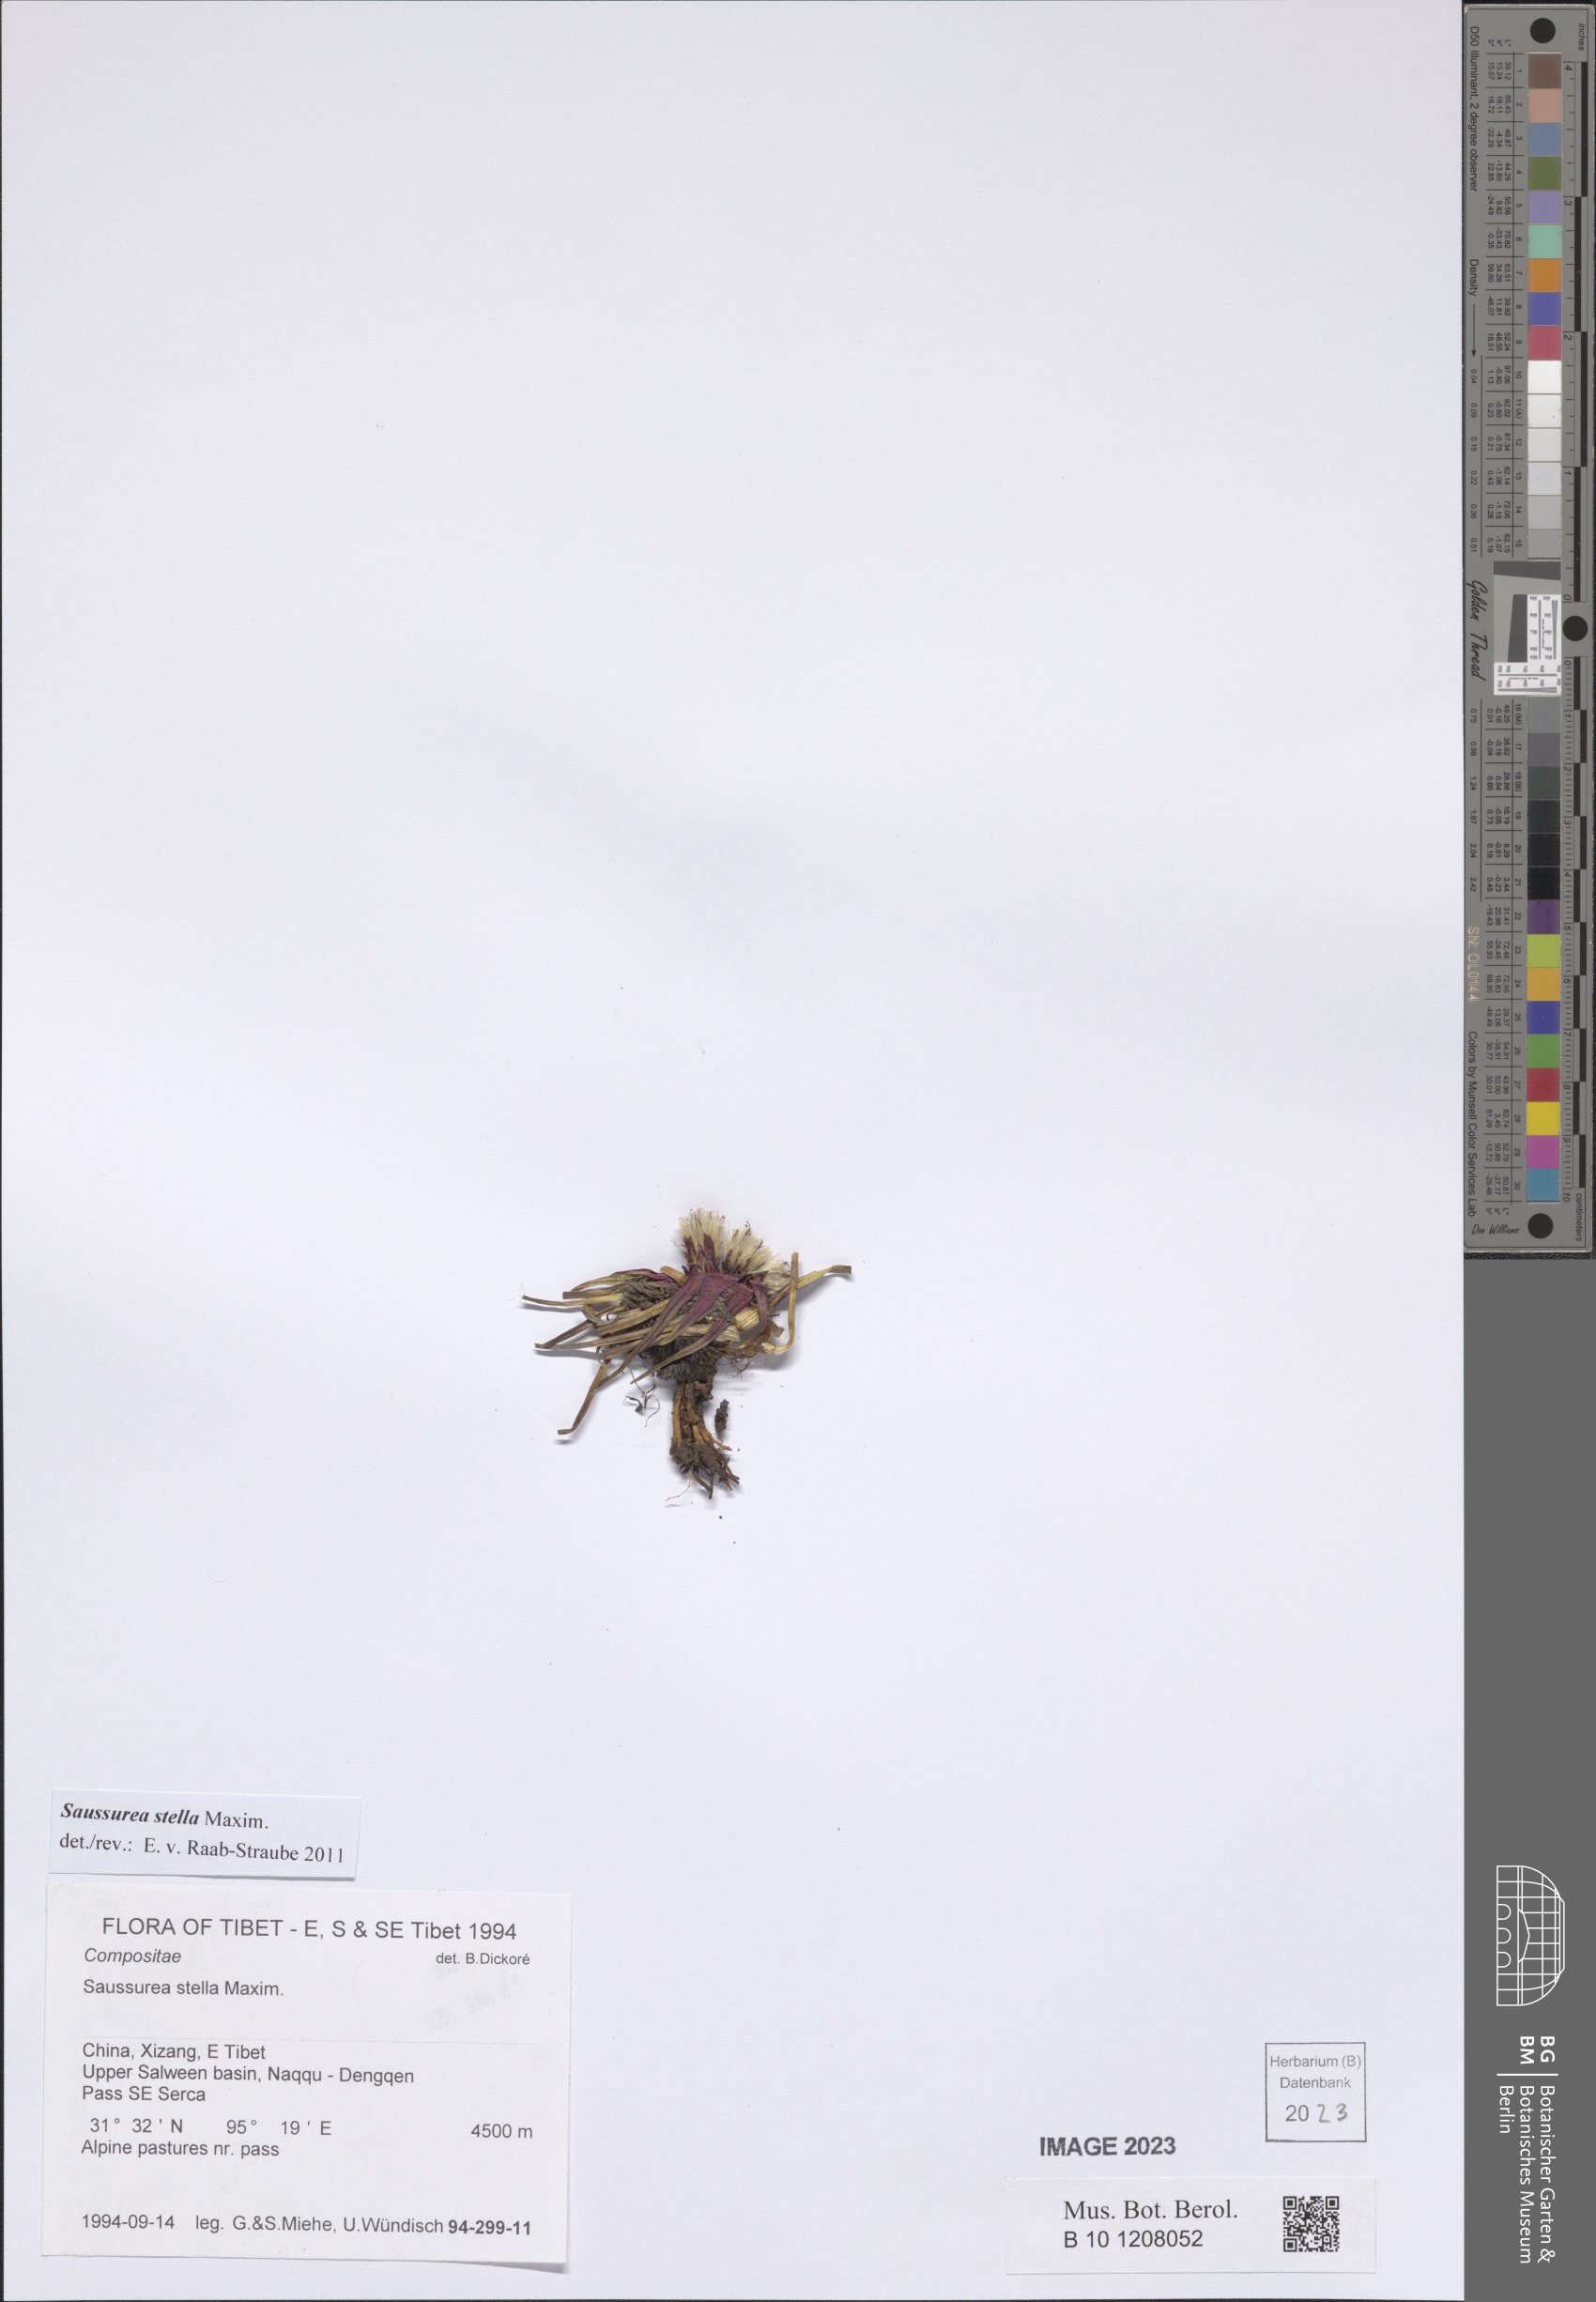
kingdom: Plantae
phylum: Tracheophyta
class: Magnoliopsida
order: Asterales
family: Asteraceae
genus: Saussurea
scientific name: Saussurea stella
